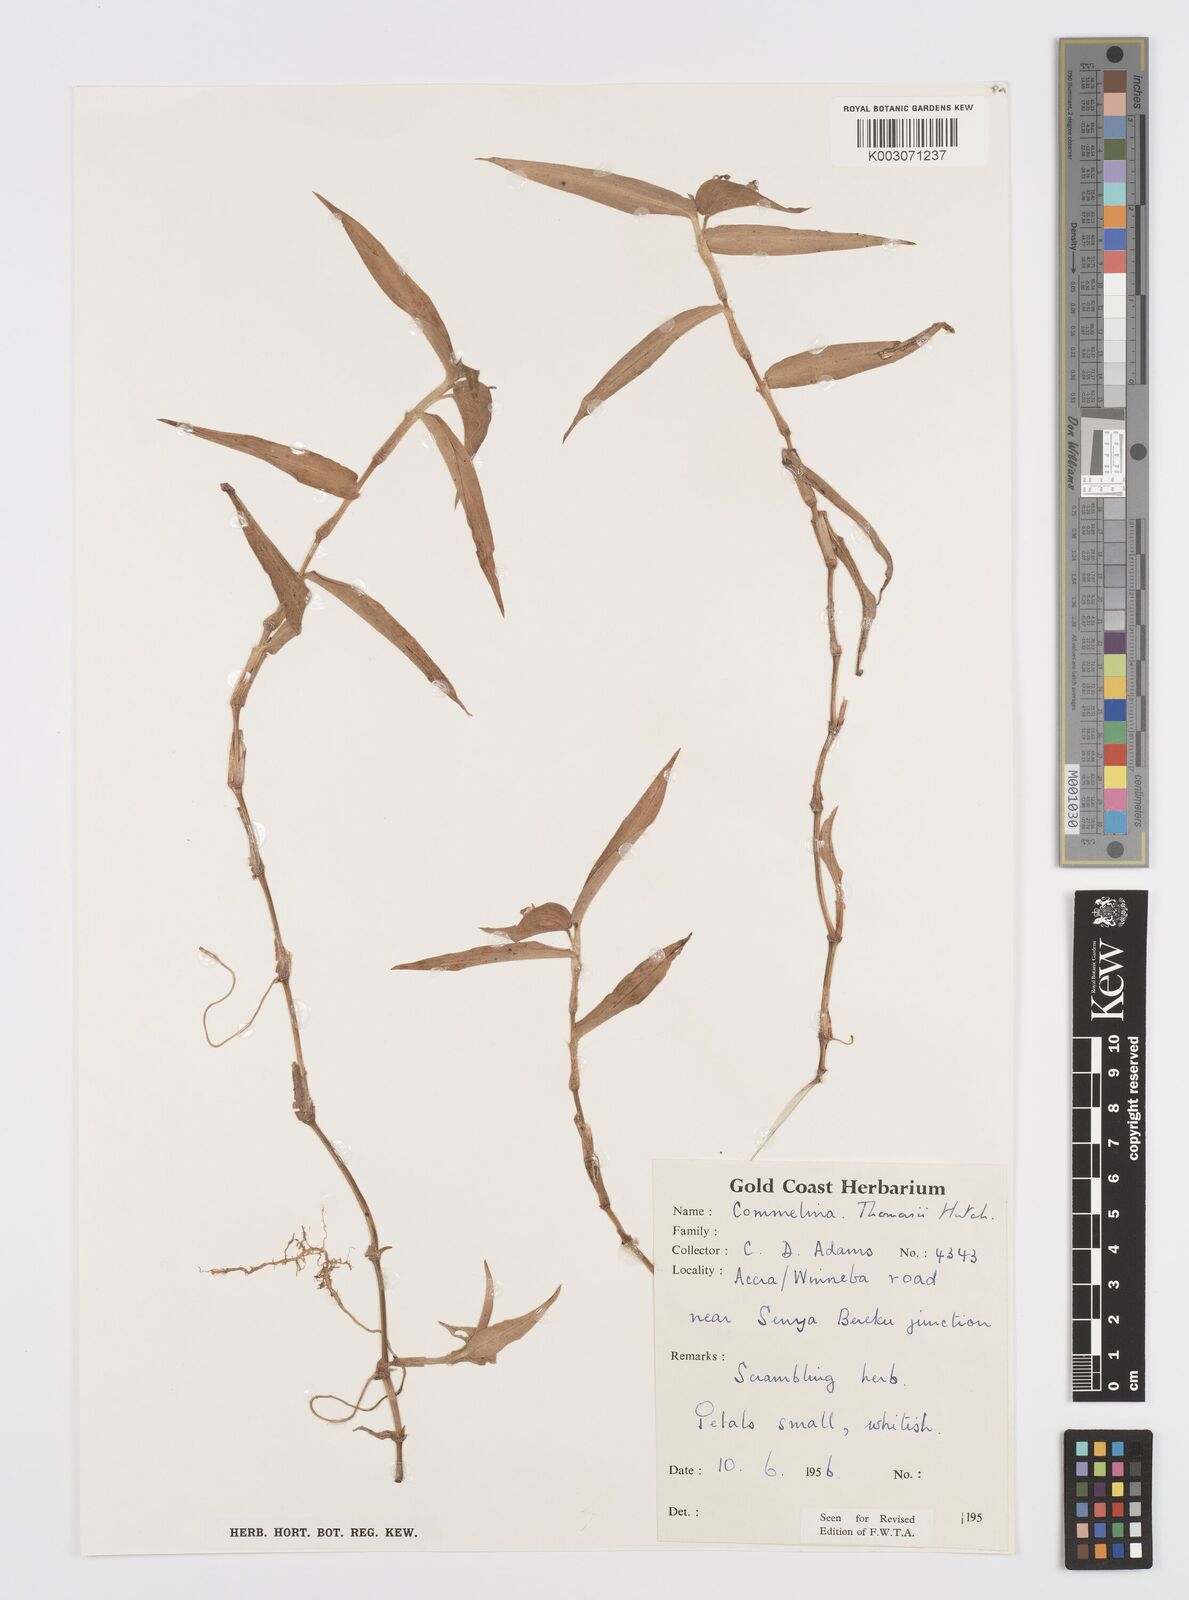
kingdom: Plantae
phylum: Tracheophyta
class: Liliopsida
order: Commelinales
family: Commelinaceae
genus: Commelina
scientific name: Commelina acutispatha
